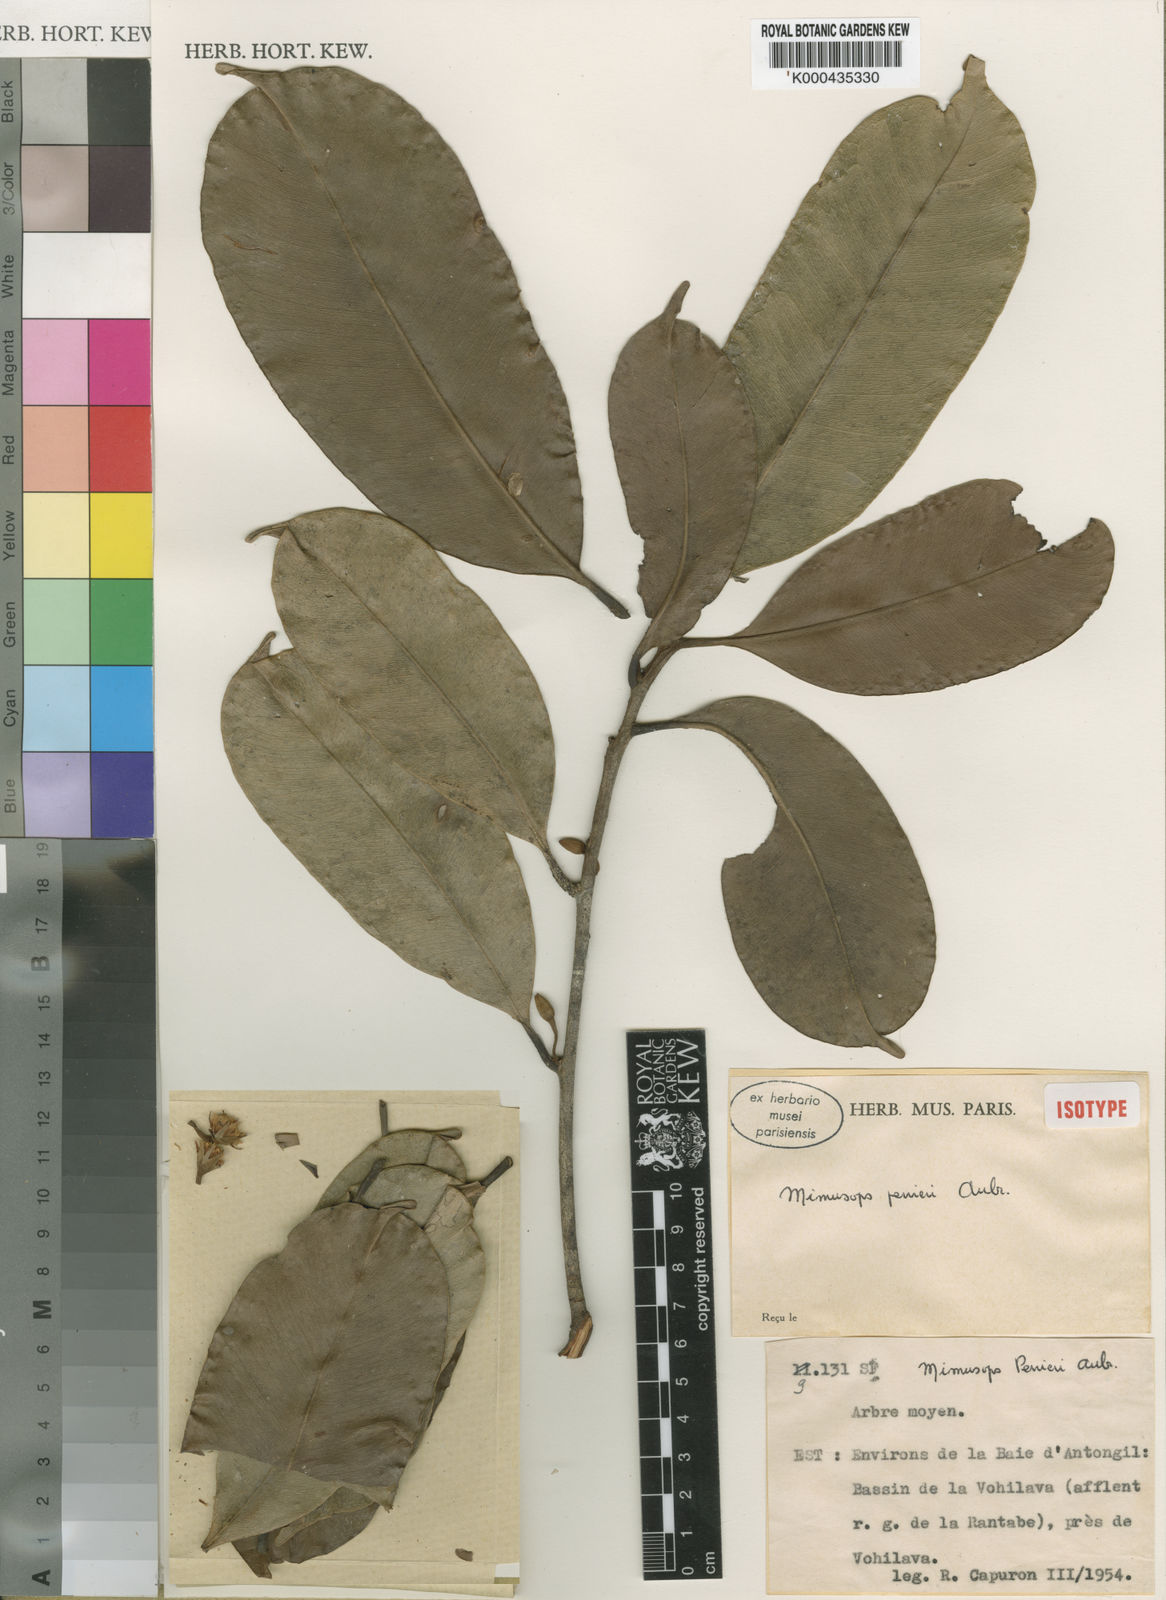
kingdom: Plantae
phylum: Tracheophyta
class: Magnoliopsida
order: Ericales
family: Sapotaceae
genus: Mimusops
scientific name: Mimusops
